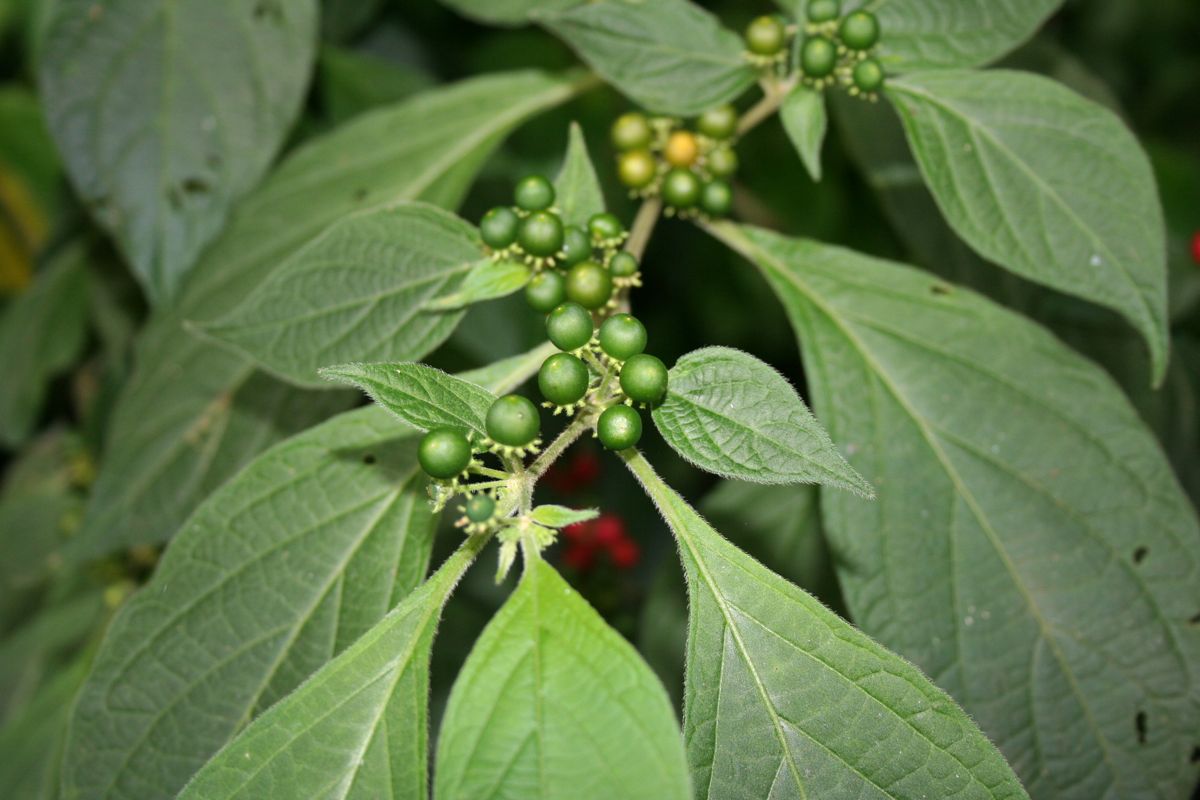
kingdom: Plantae
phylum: Tracheophyta
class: Magnoliopsida
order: Solanales
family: Solanaceae
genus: Lycianthes
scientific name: Lycianthes arrazolensis
